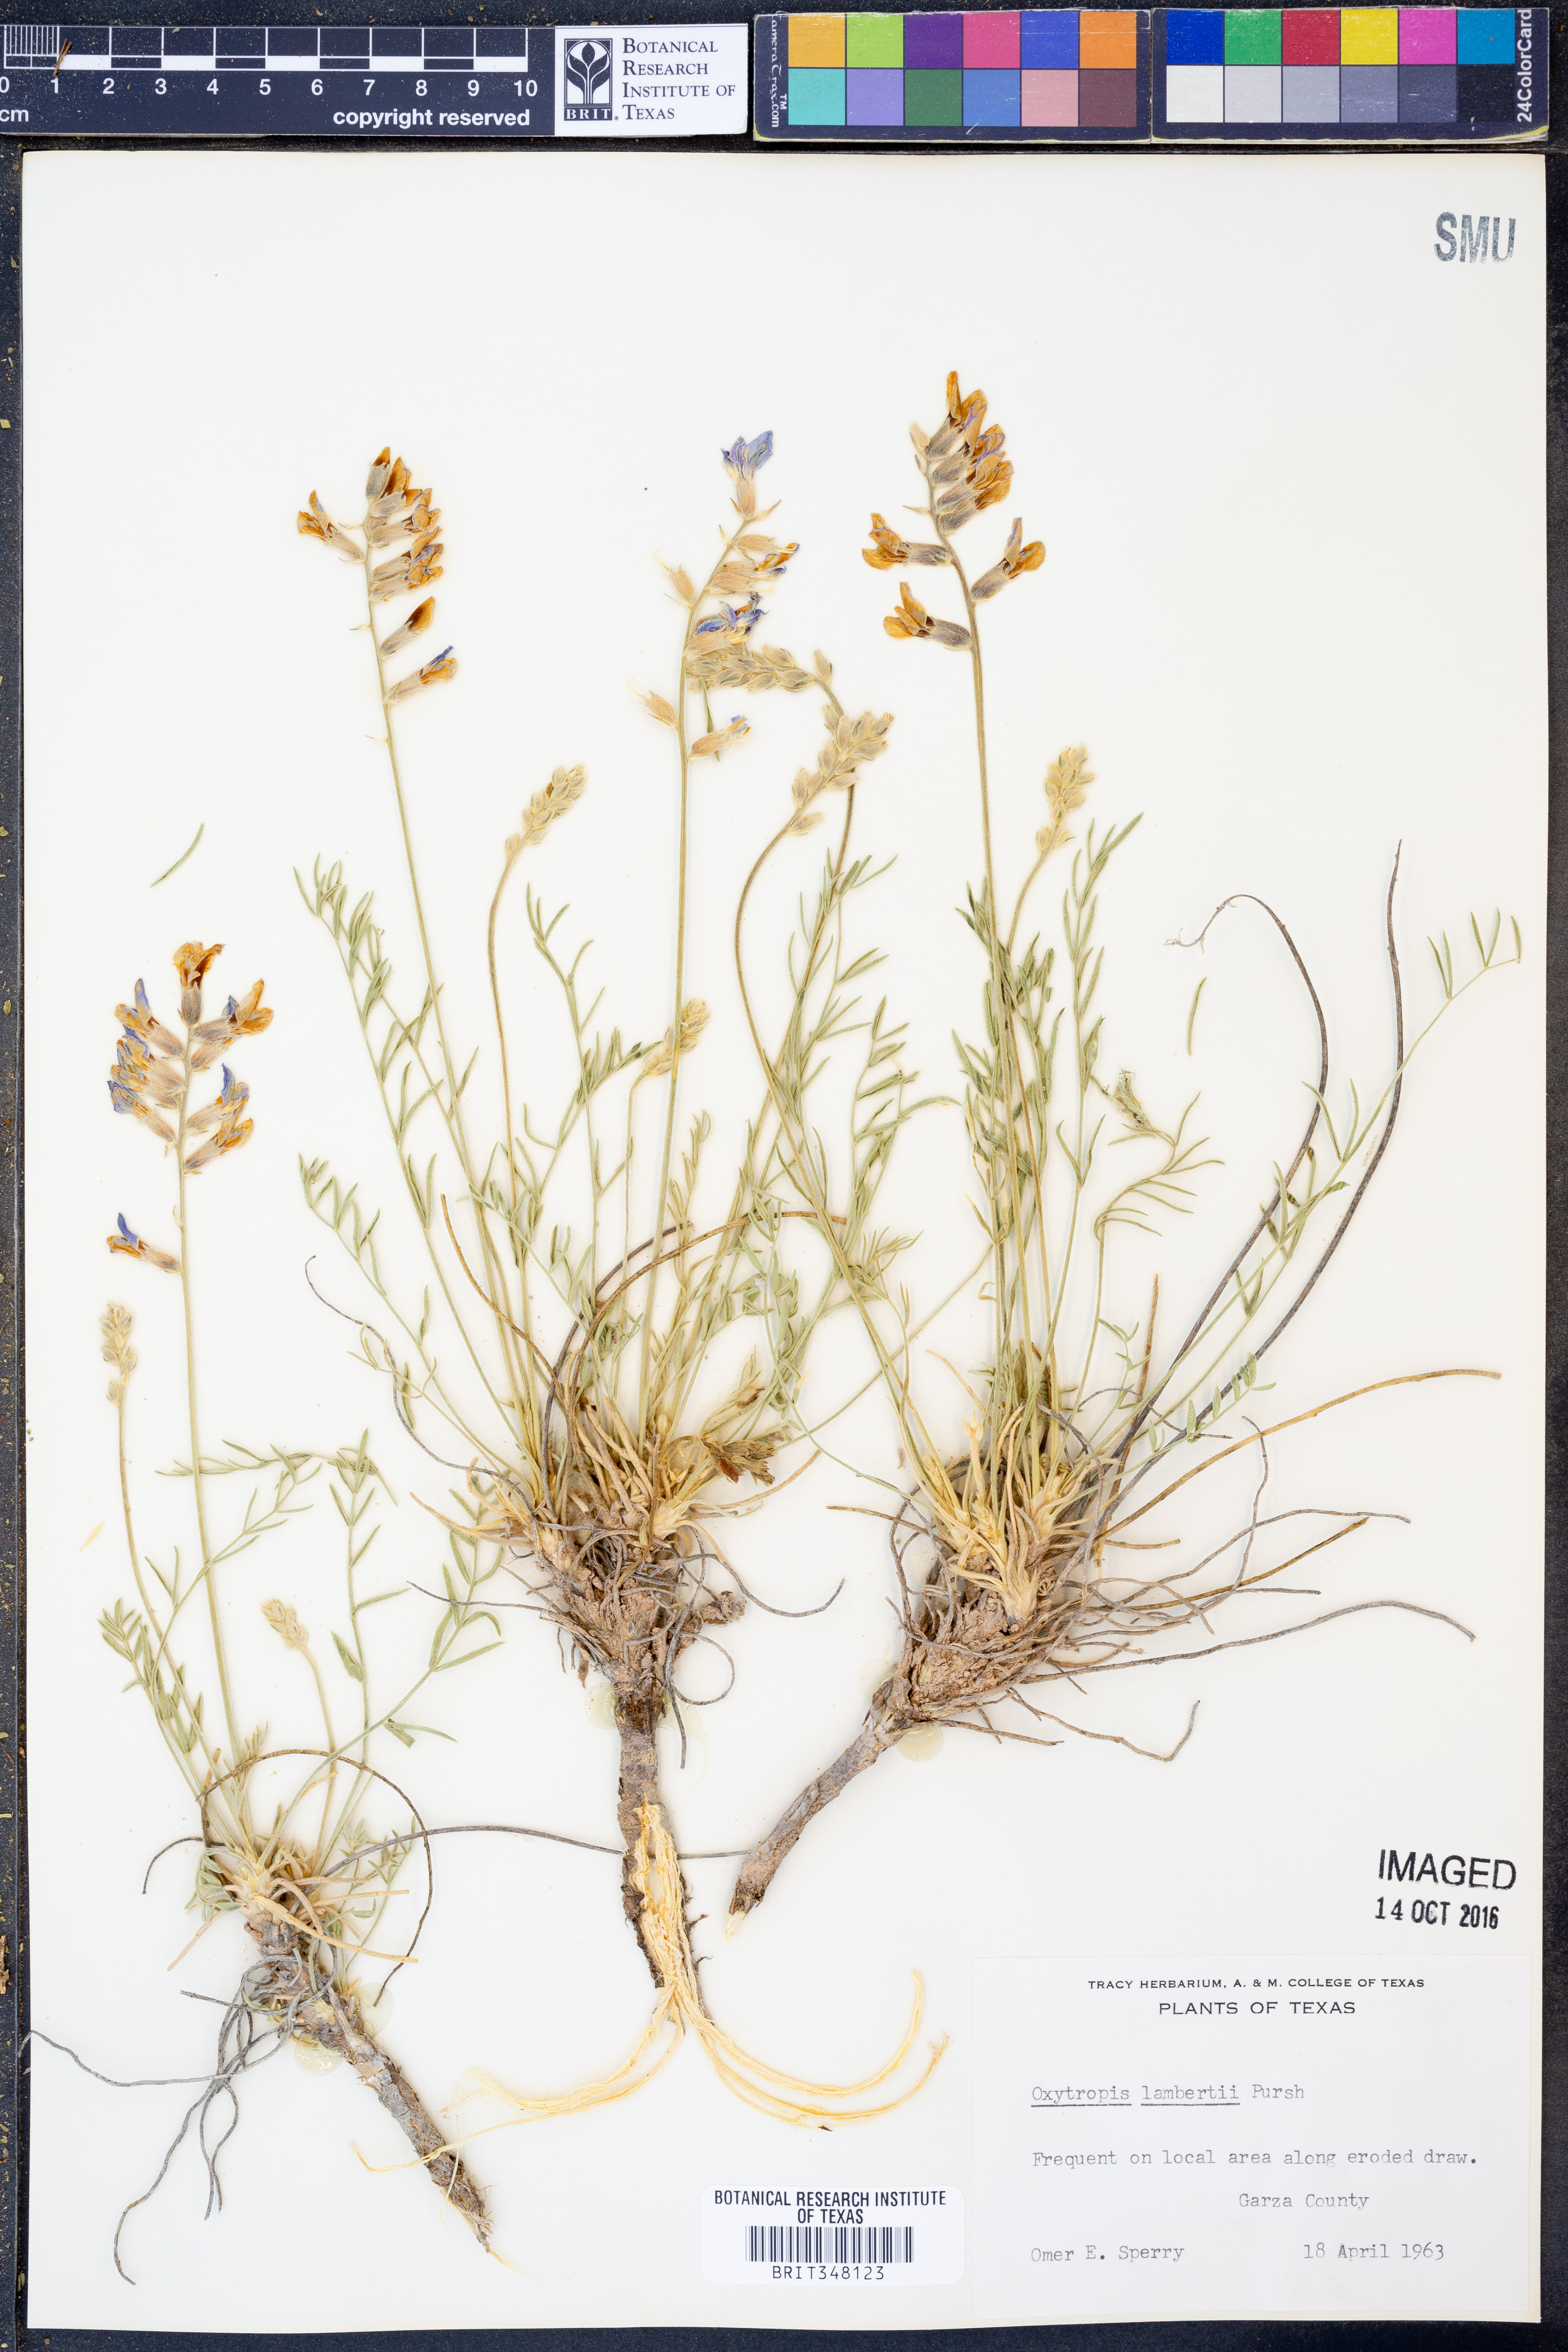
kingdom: Plantae
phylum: Tracheophyta
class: Magnoliopsida
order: Fabales
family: Fabaceae
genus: Oxytropis
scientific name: Oxytropis lambertii
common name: Purple locoweed
